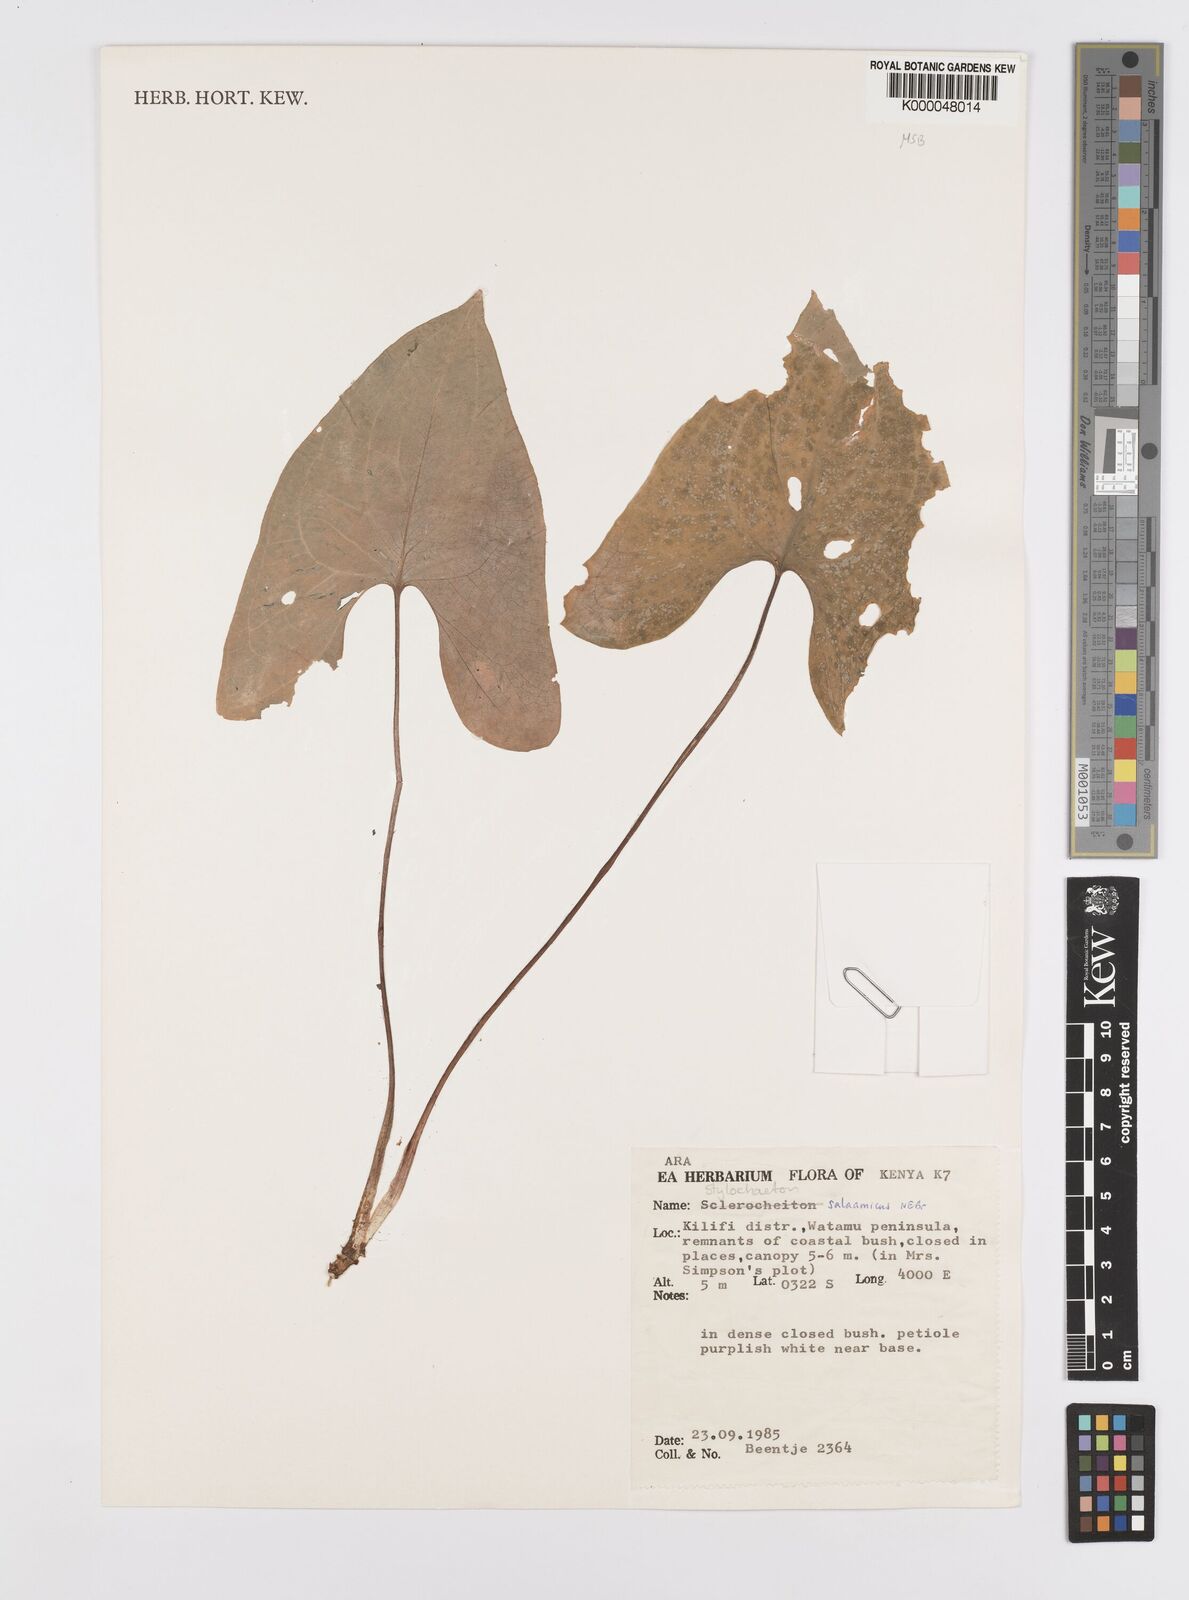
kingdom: Plantae
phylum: Tracheophyta
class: Liliopsida
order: Alismatales
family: Araceae
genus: Stylochaeton
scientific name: Stylochaeton salaamicum
